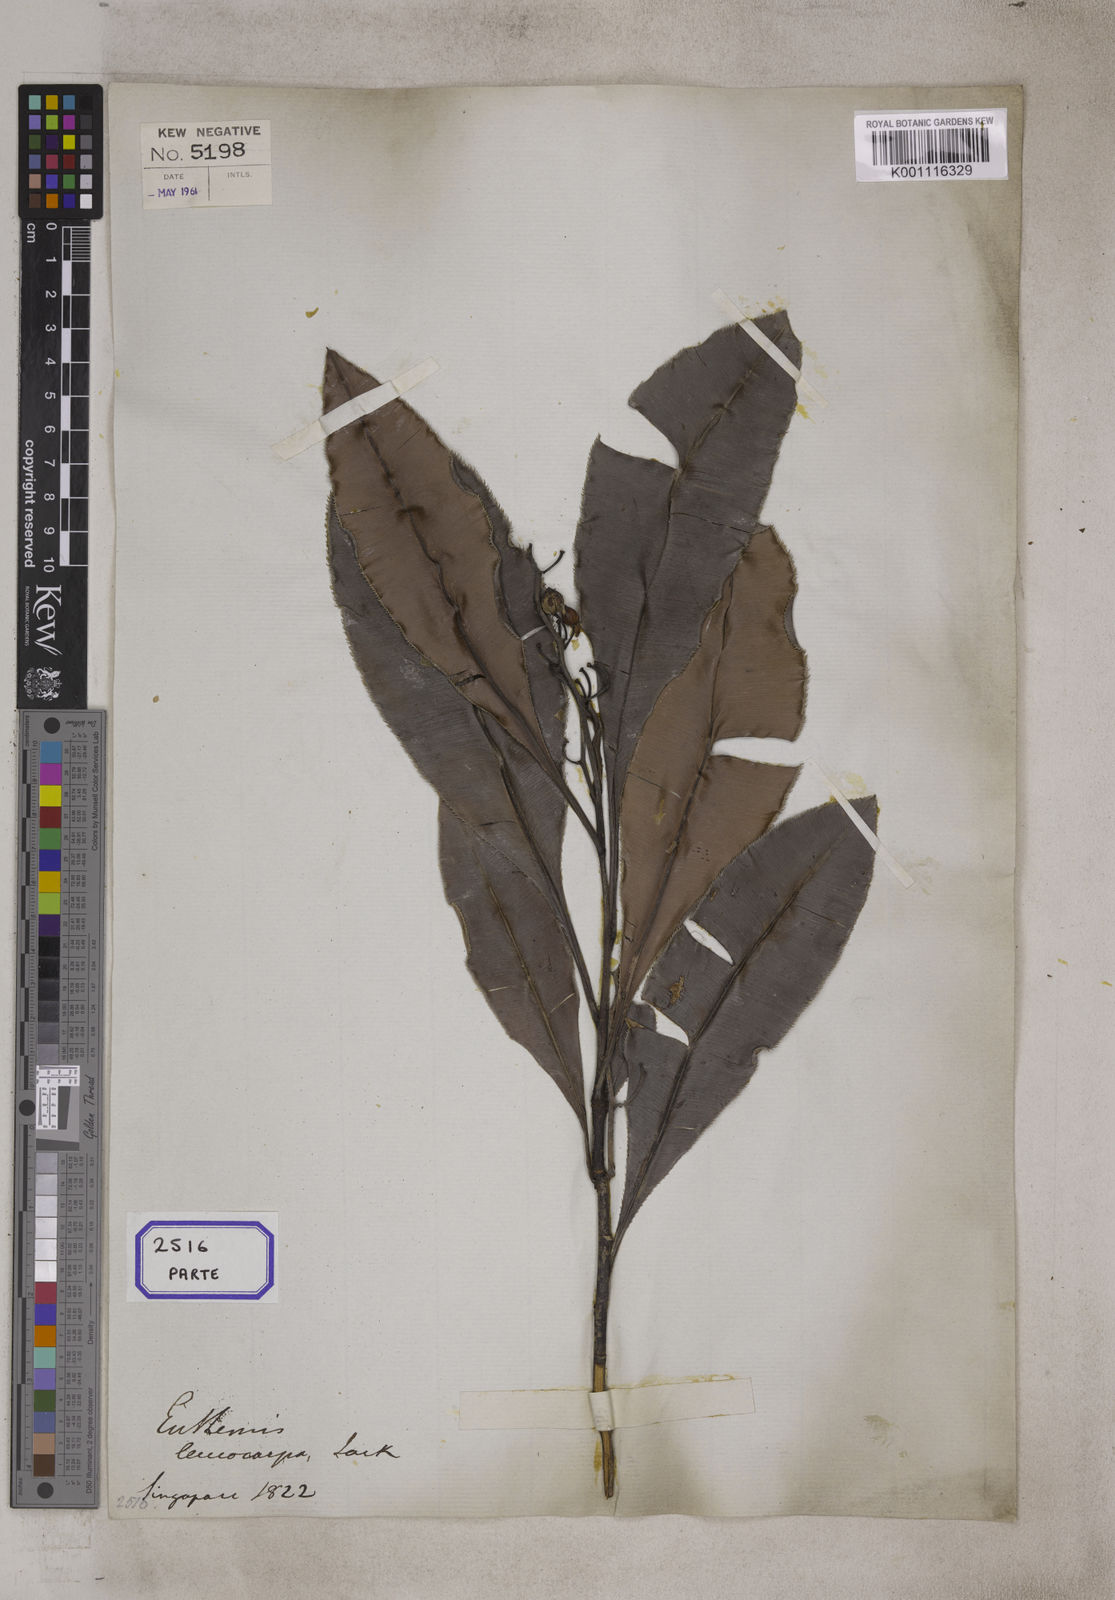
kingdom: Plantae
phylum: Tracheophyta
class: Magnoliopsida
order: Malpighiales
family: Ochnaceae
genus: Euthemis
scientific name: Euthemis leucocarpa
